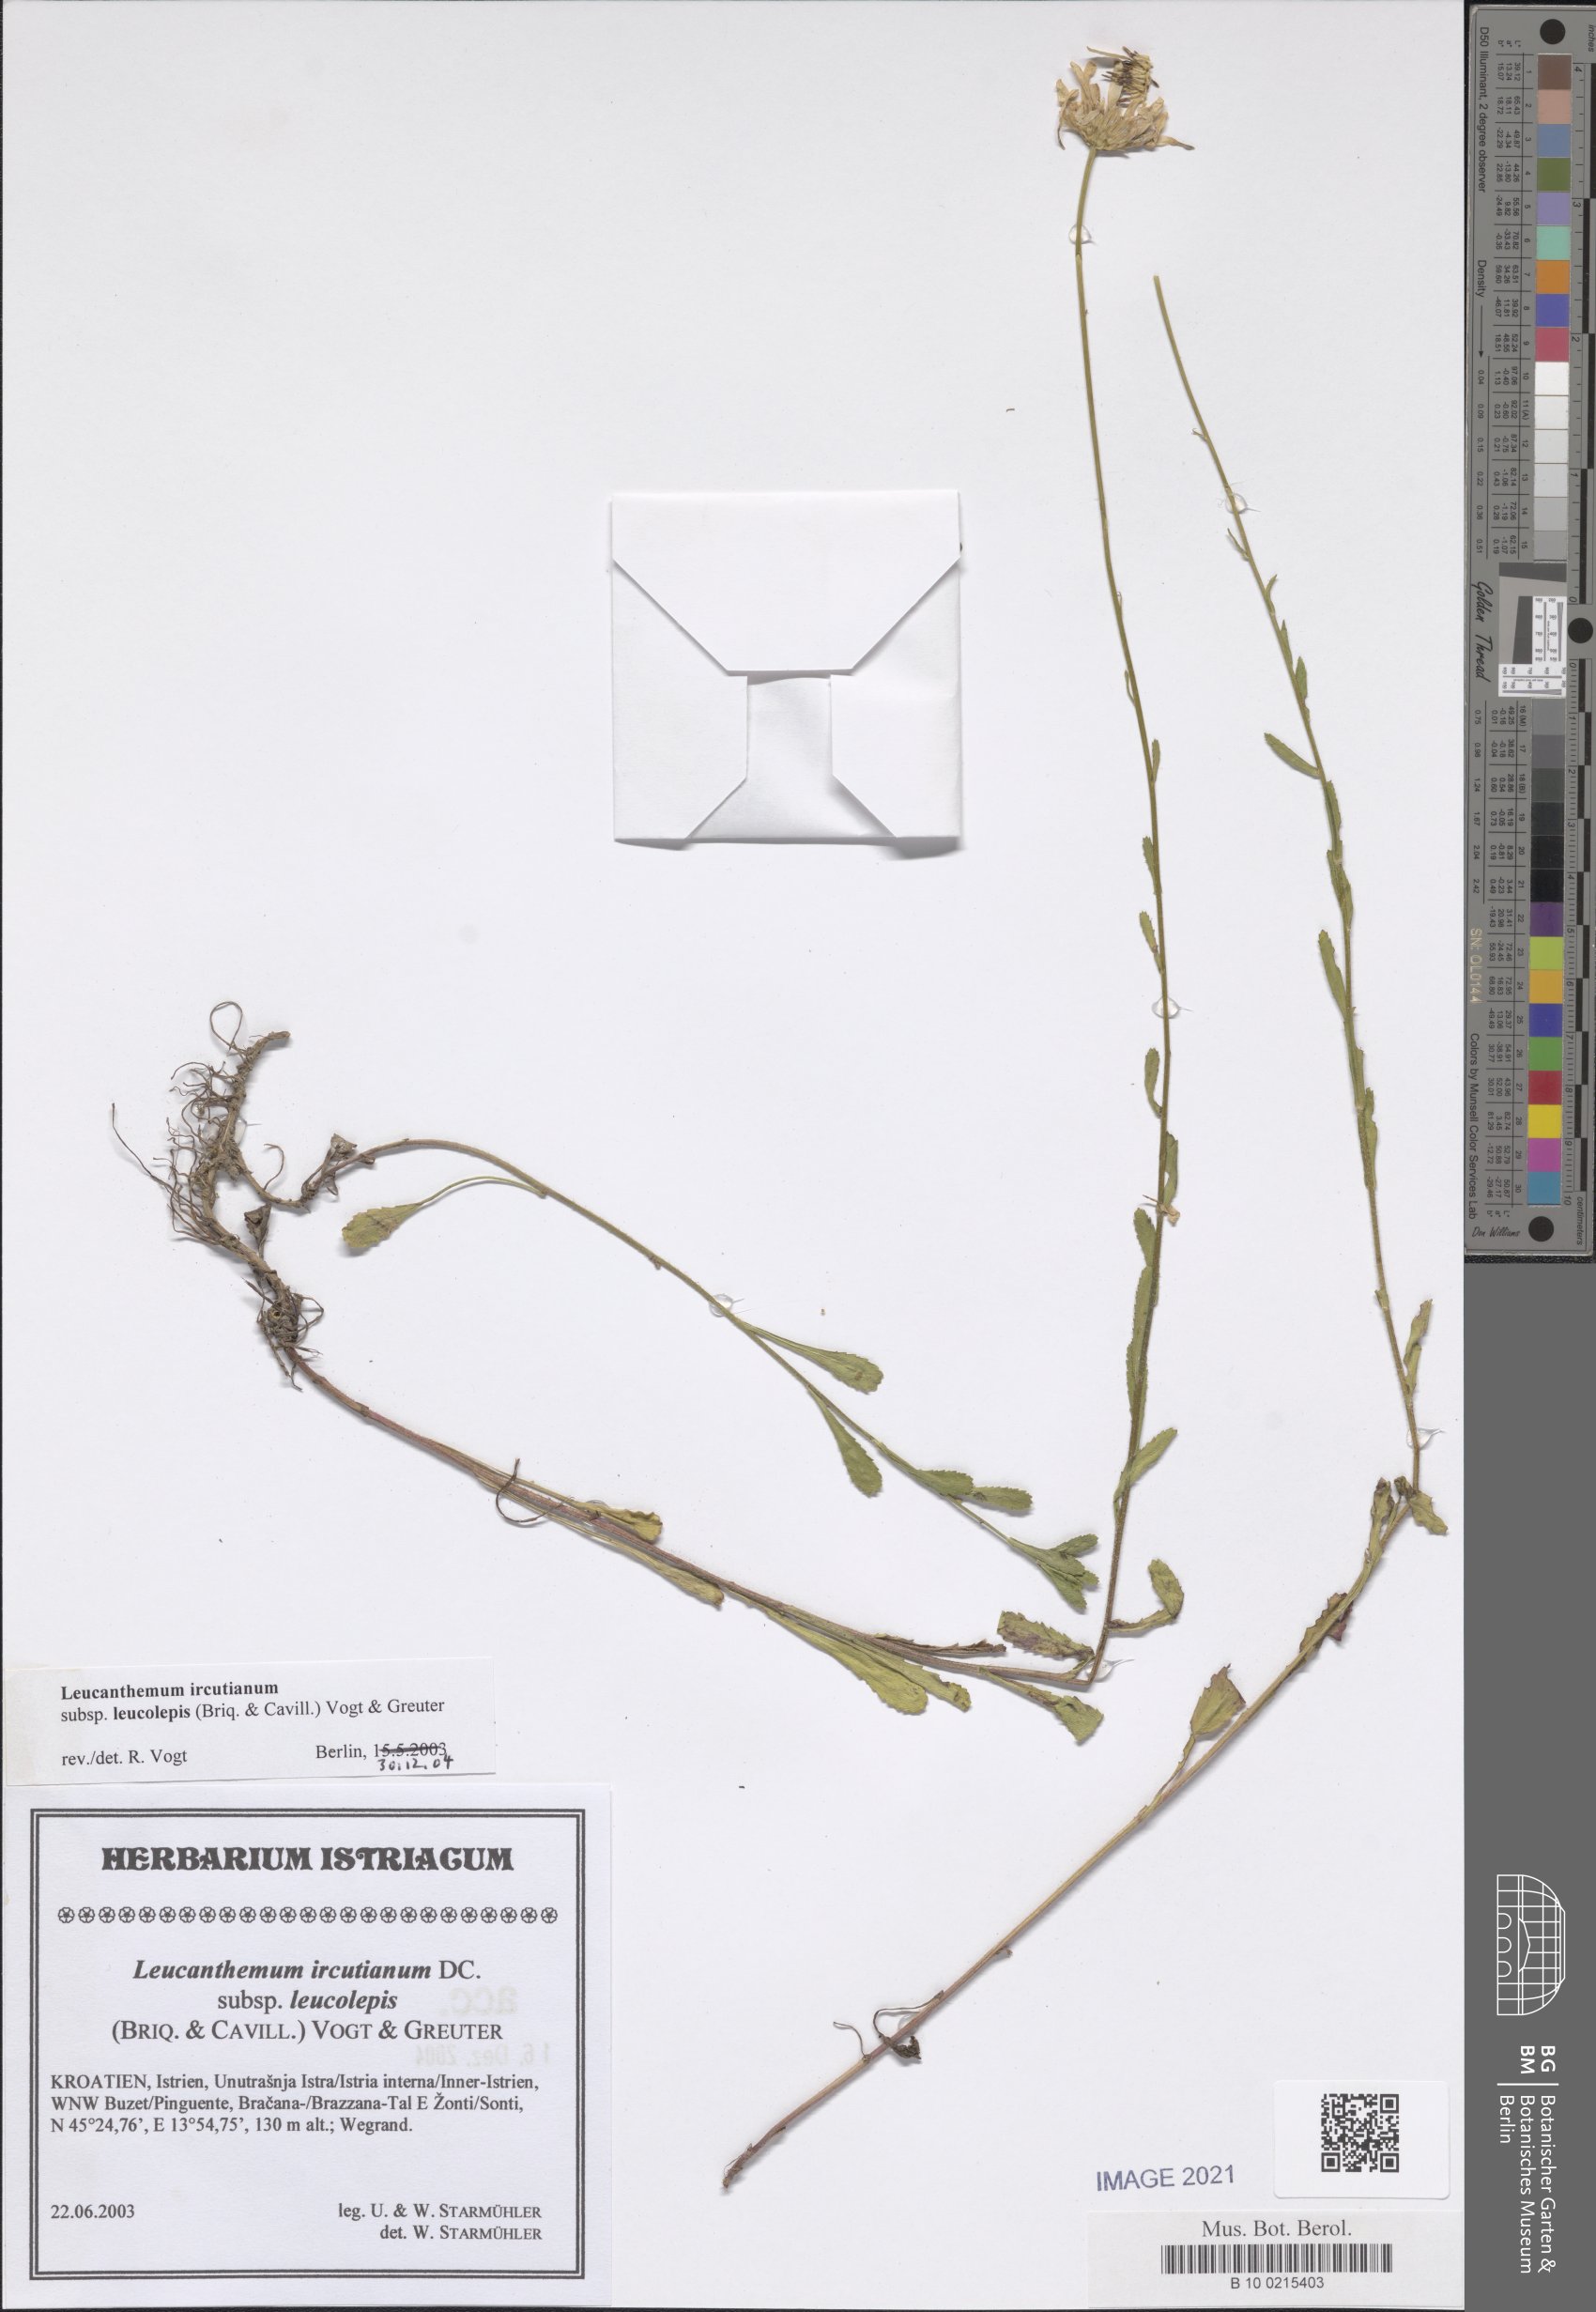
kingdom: Plantae
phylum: Tracheophyta
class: Magnoliopsida
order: Asterales
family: Asteraceae
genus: Leucanthemum
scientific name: Leucanthemum ircutianum
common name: Daisy
